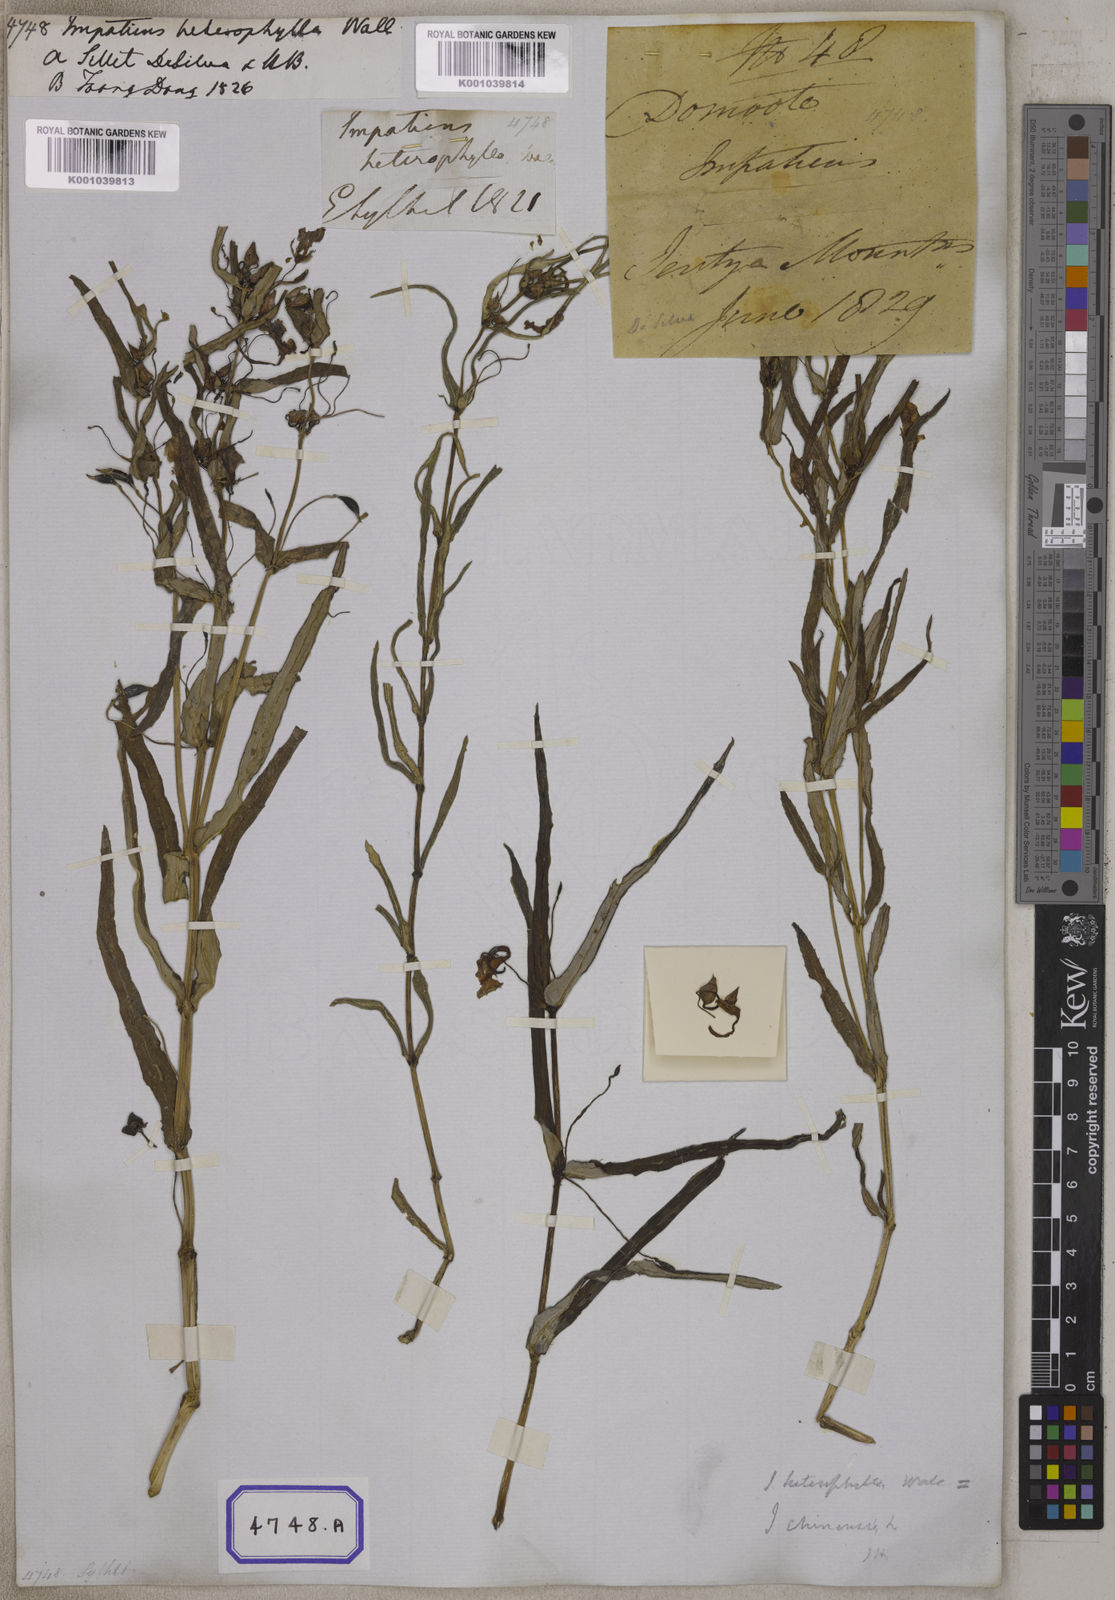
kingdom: Plantae
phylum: Tracheophyta
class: Magnoliopsida
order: Ericales
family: Balsaminaceae
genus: Impatiens
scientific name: Impatiens chinensis
